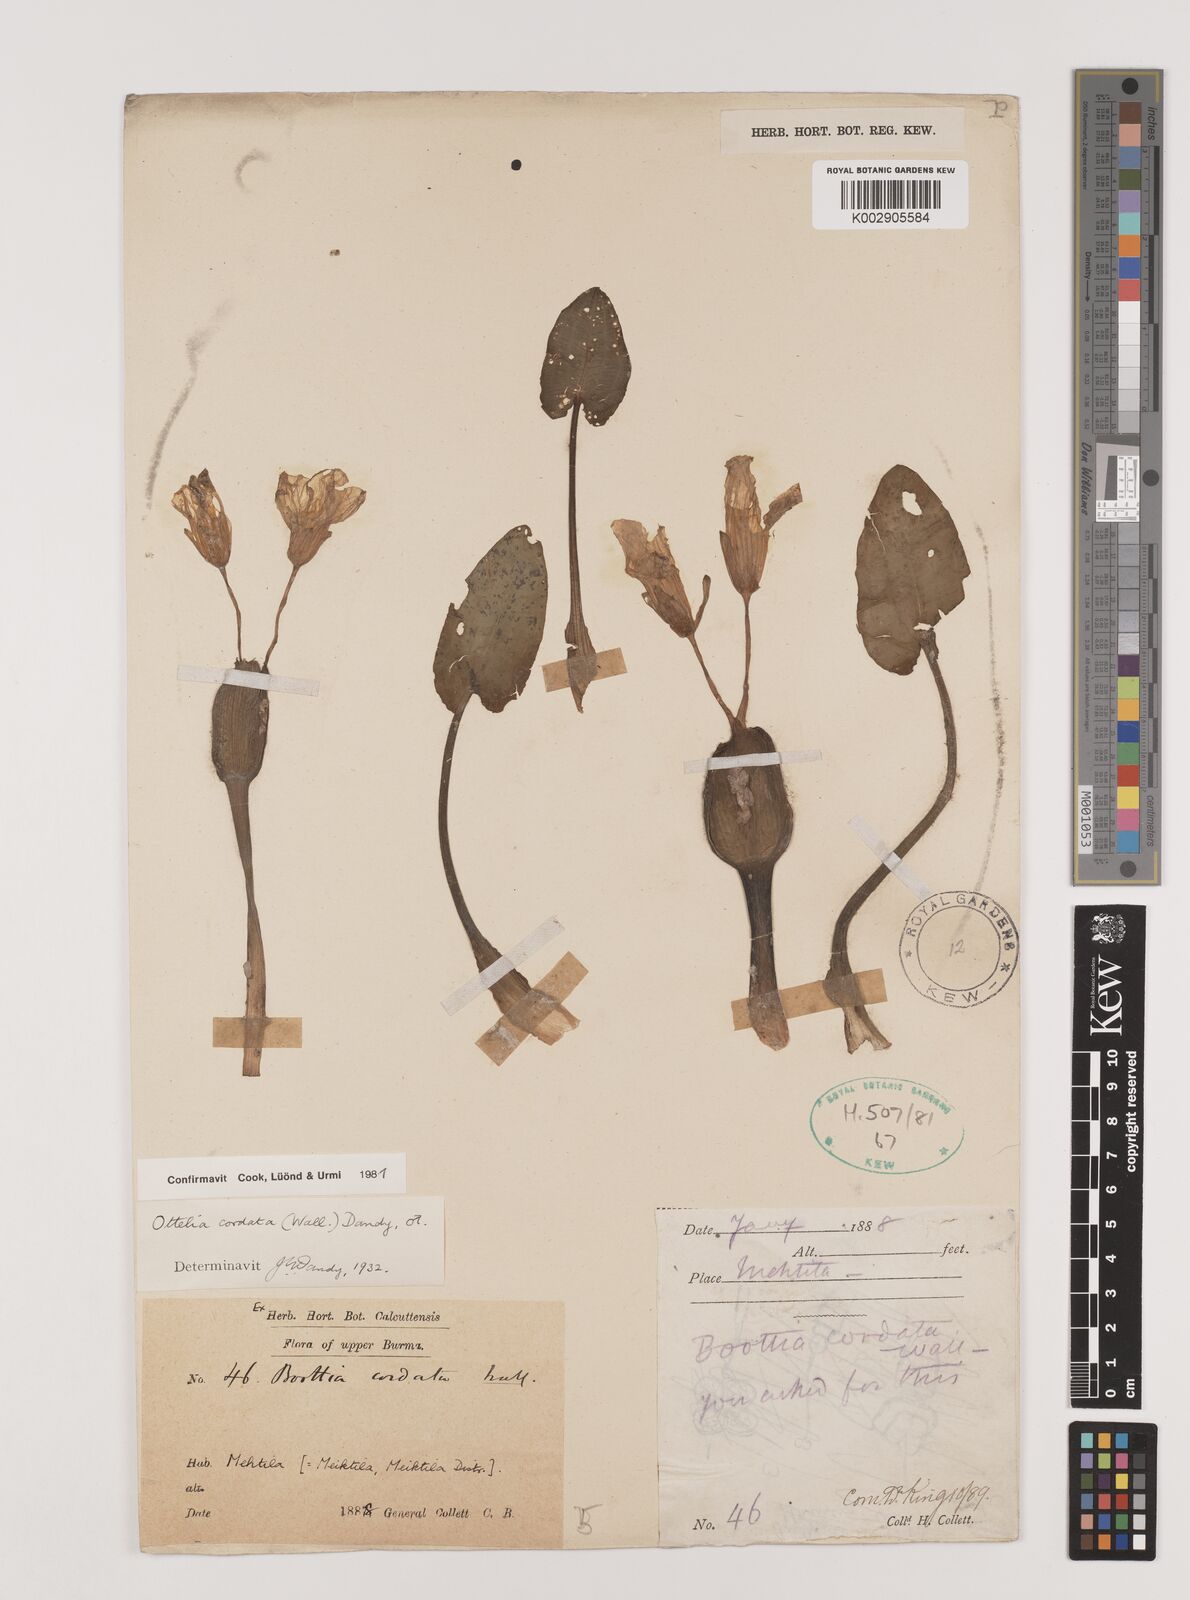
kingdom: Plantae
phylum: Tracheophyta
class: Liliopsida
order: Alismatales
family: Hydrocharitaceae
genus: Ottelia
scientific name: Ottelia cordata
